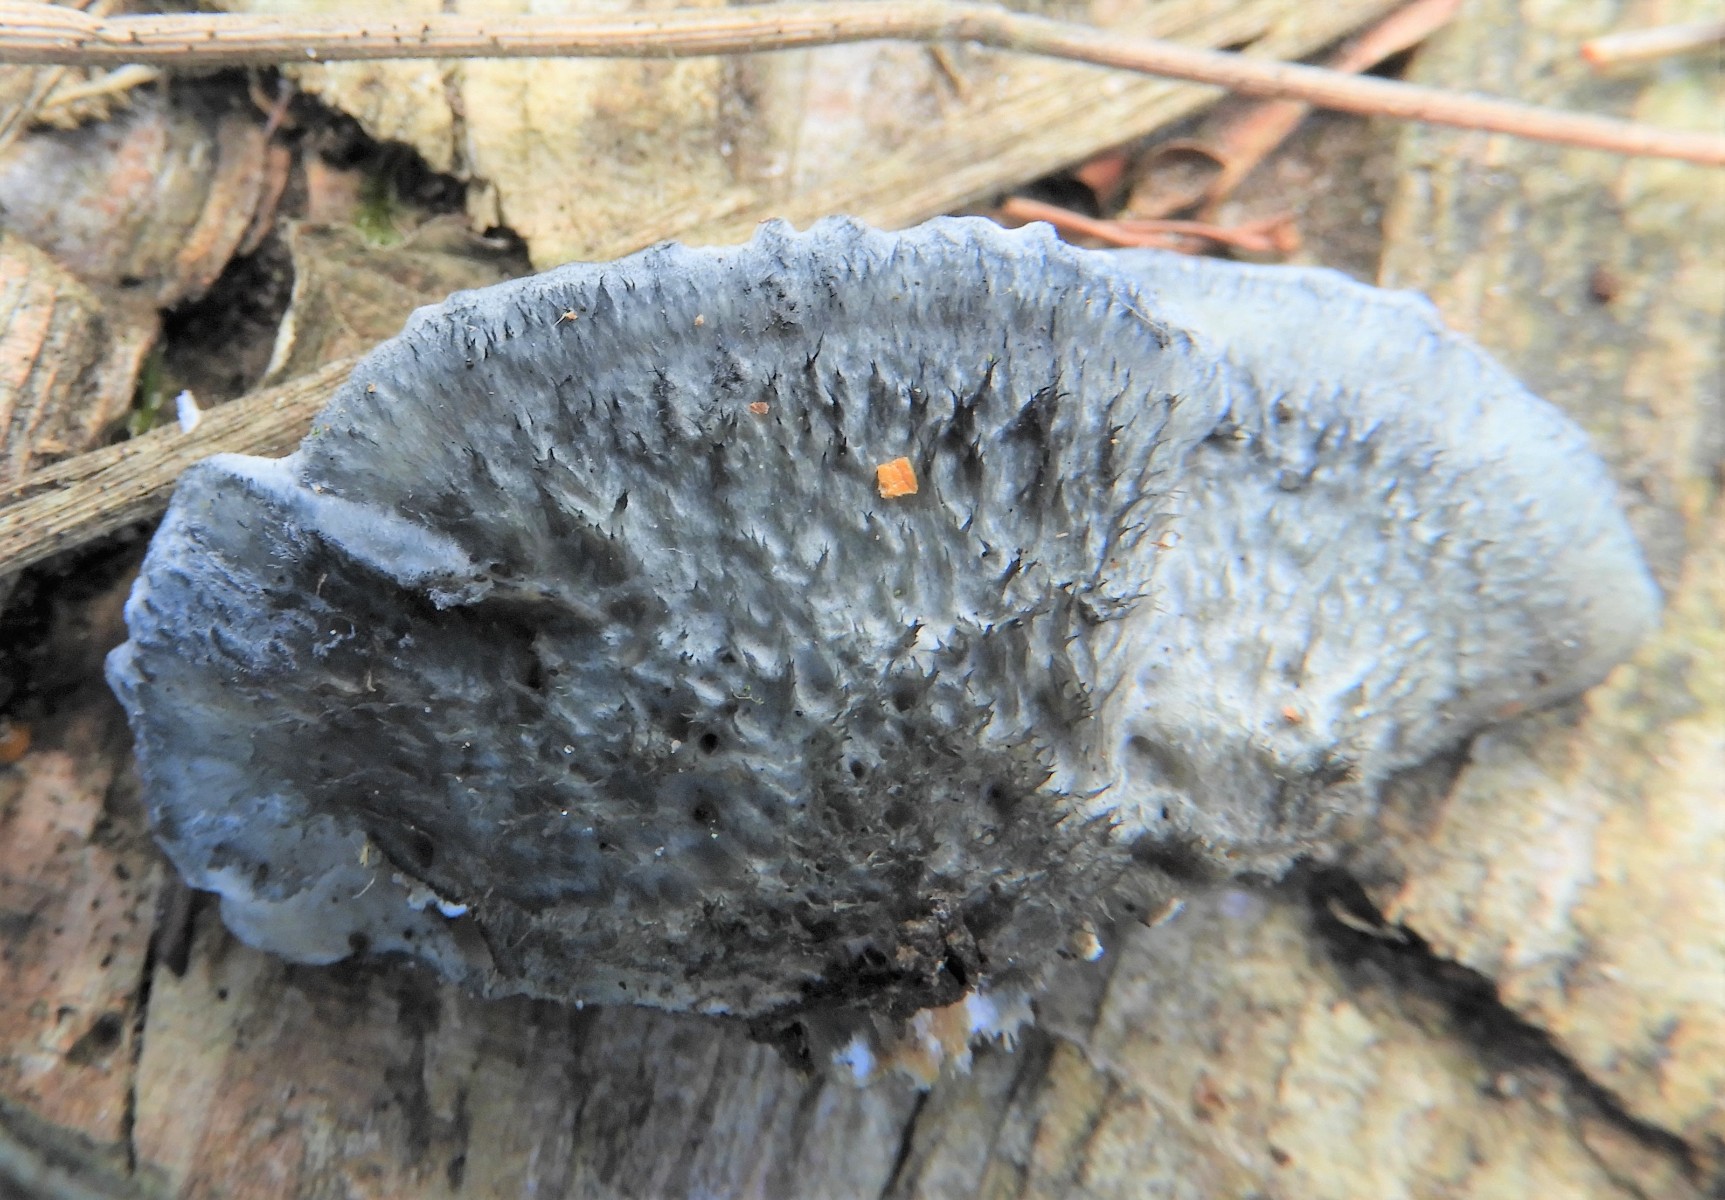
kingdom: Fungi
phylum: Basidiomycota
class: Agaricomycetes
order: Polyporales
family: Polyporaceae
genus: Cyanosporus
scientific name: Cyanosporus caesius
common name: blålig kødporesvamp
